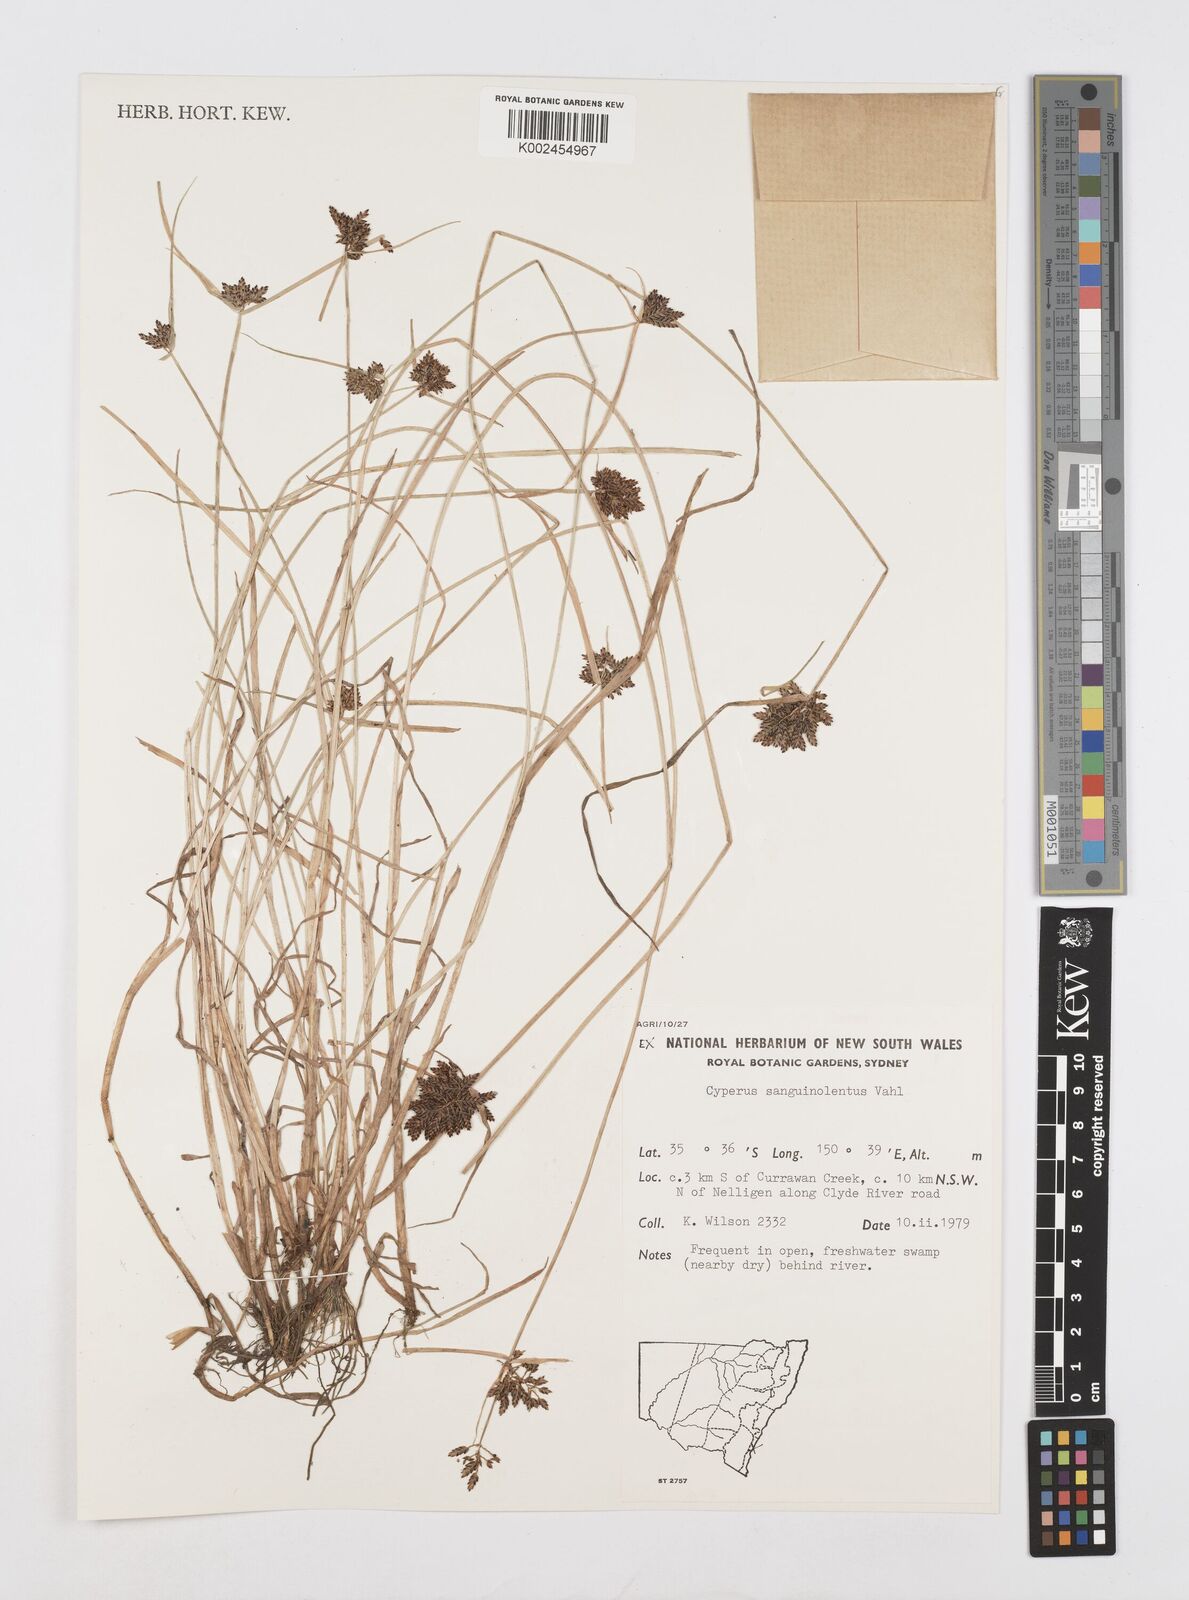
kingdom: Plantae
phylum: Tracheophyta
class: Liliopsida
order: Poales
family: Cyperaceae
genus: Cyperus
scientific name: Cyperus sanguinolentus
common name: Purpleglume flatsedge
